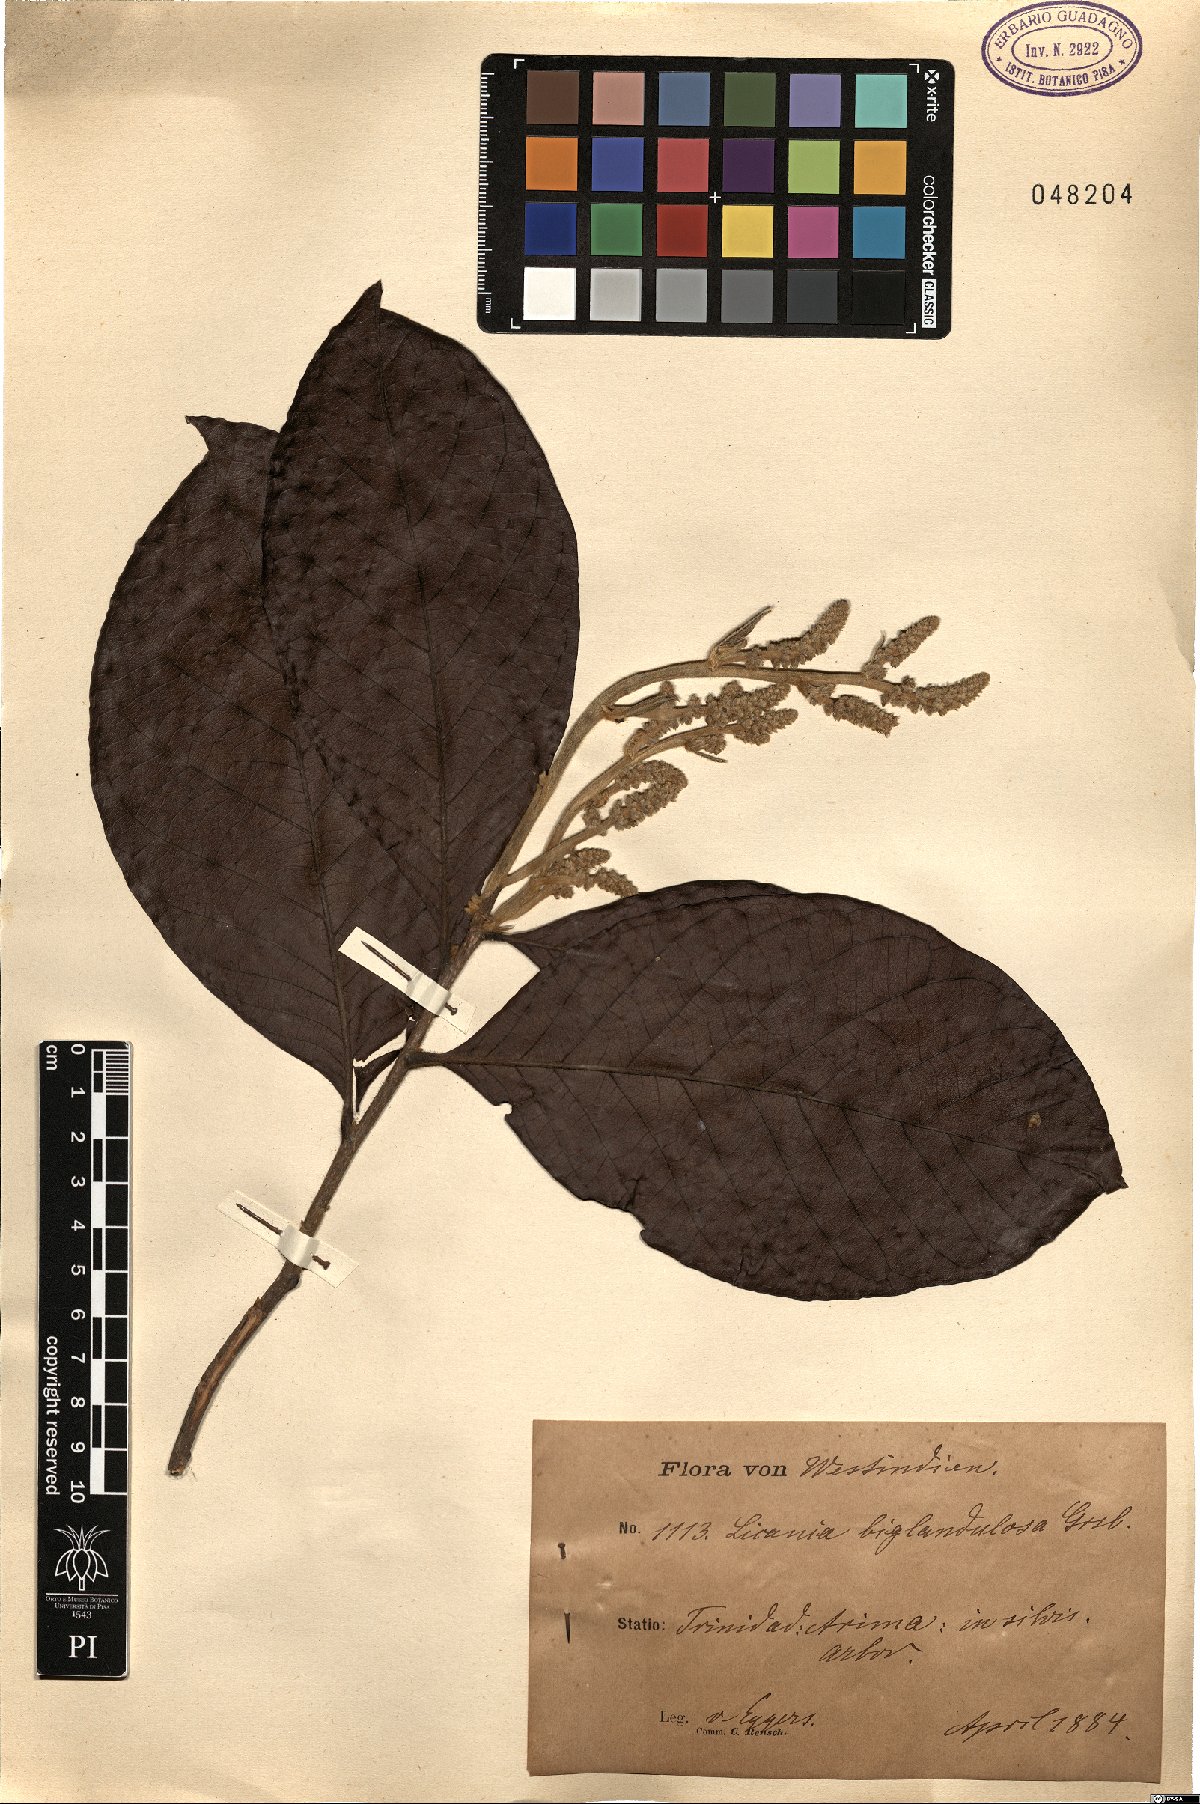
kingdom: Plantae
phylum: Tracheophyta
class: Magnoliopsida
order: Malpighiales
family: Chrysobalanaceae
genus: Hymenopus
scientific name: Hymenopus heteromorphus
